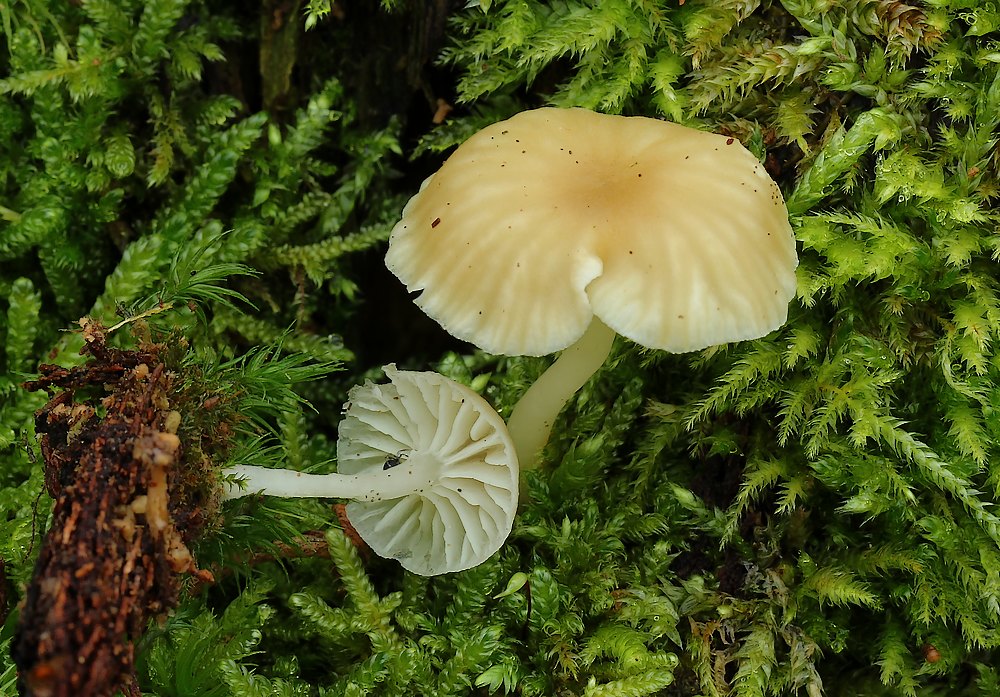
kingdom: Fungi
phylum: Basidiomycota
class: Agaricomycetes
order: Agaricales
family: Hygrophoraceae
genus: Chrysomphalina
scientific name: Chrysomphalina grossula
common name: stød-gyldenblad
